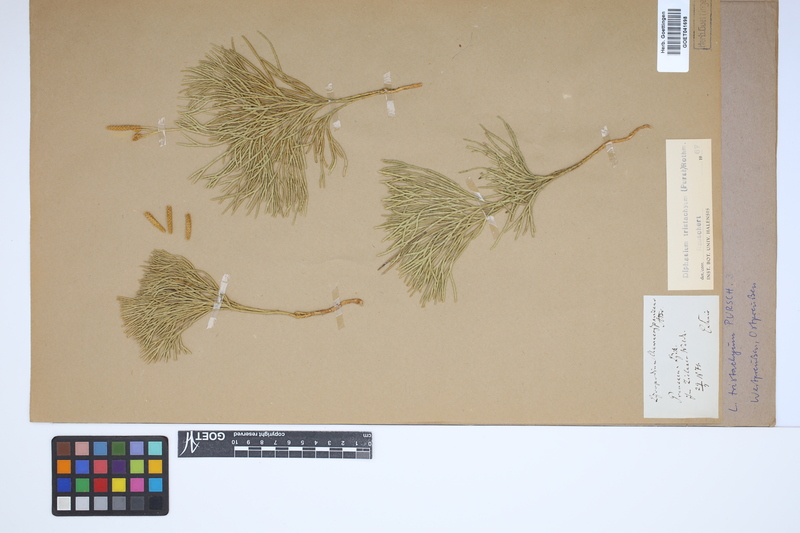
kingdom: Plantae
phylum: Tracheophyta
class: Lycopodiopsida
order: Lycopodiales
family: Lycopodiaceae
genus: Diphasiastrum
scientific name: Diphasiastrum tristachyum
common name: Blue ground-cedar
